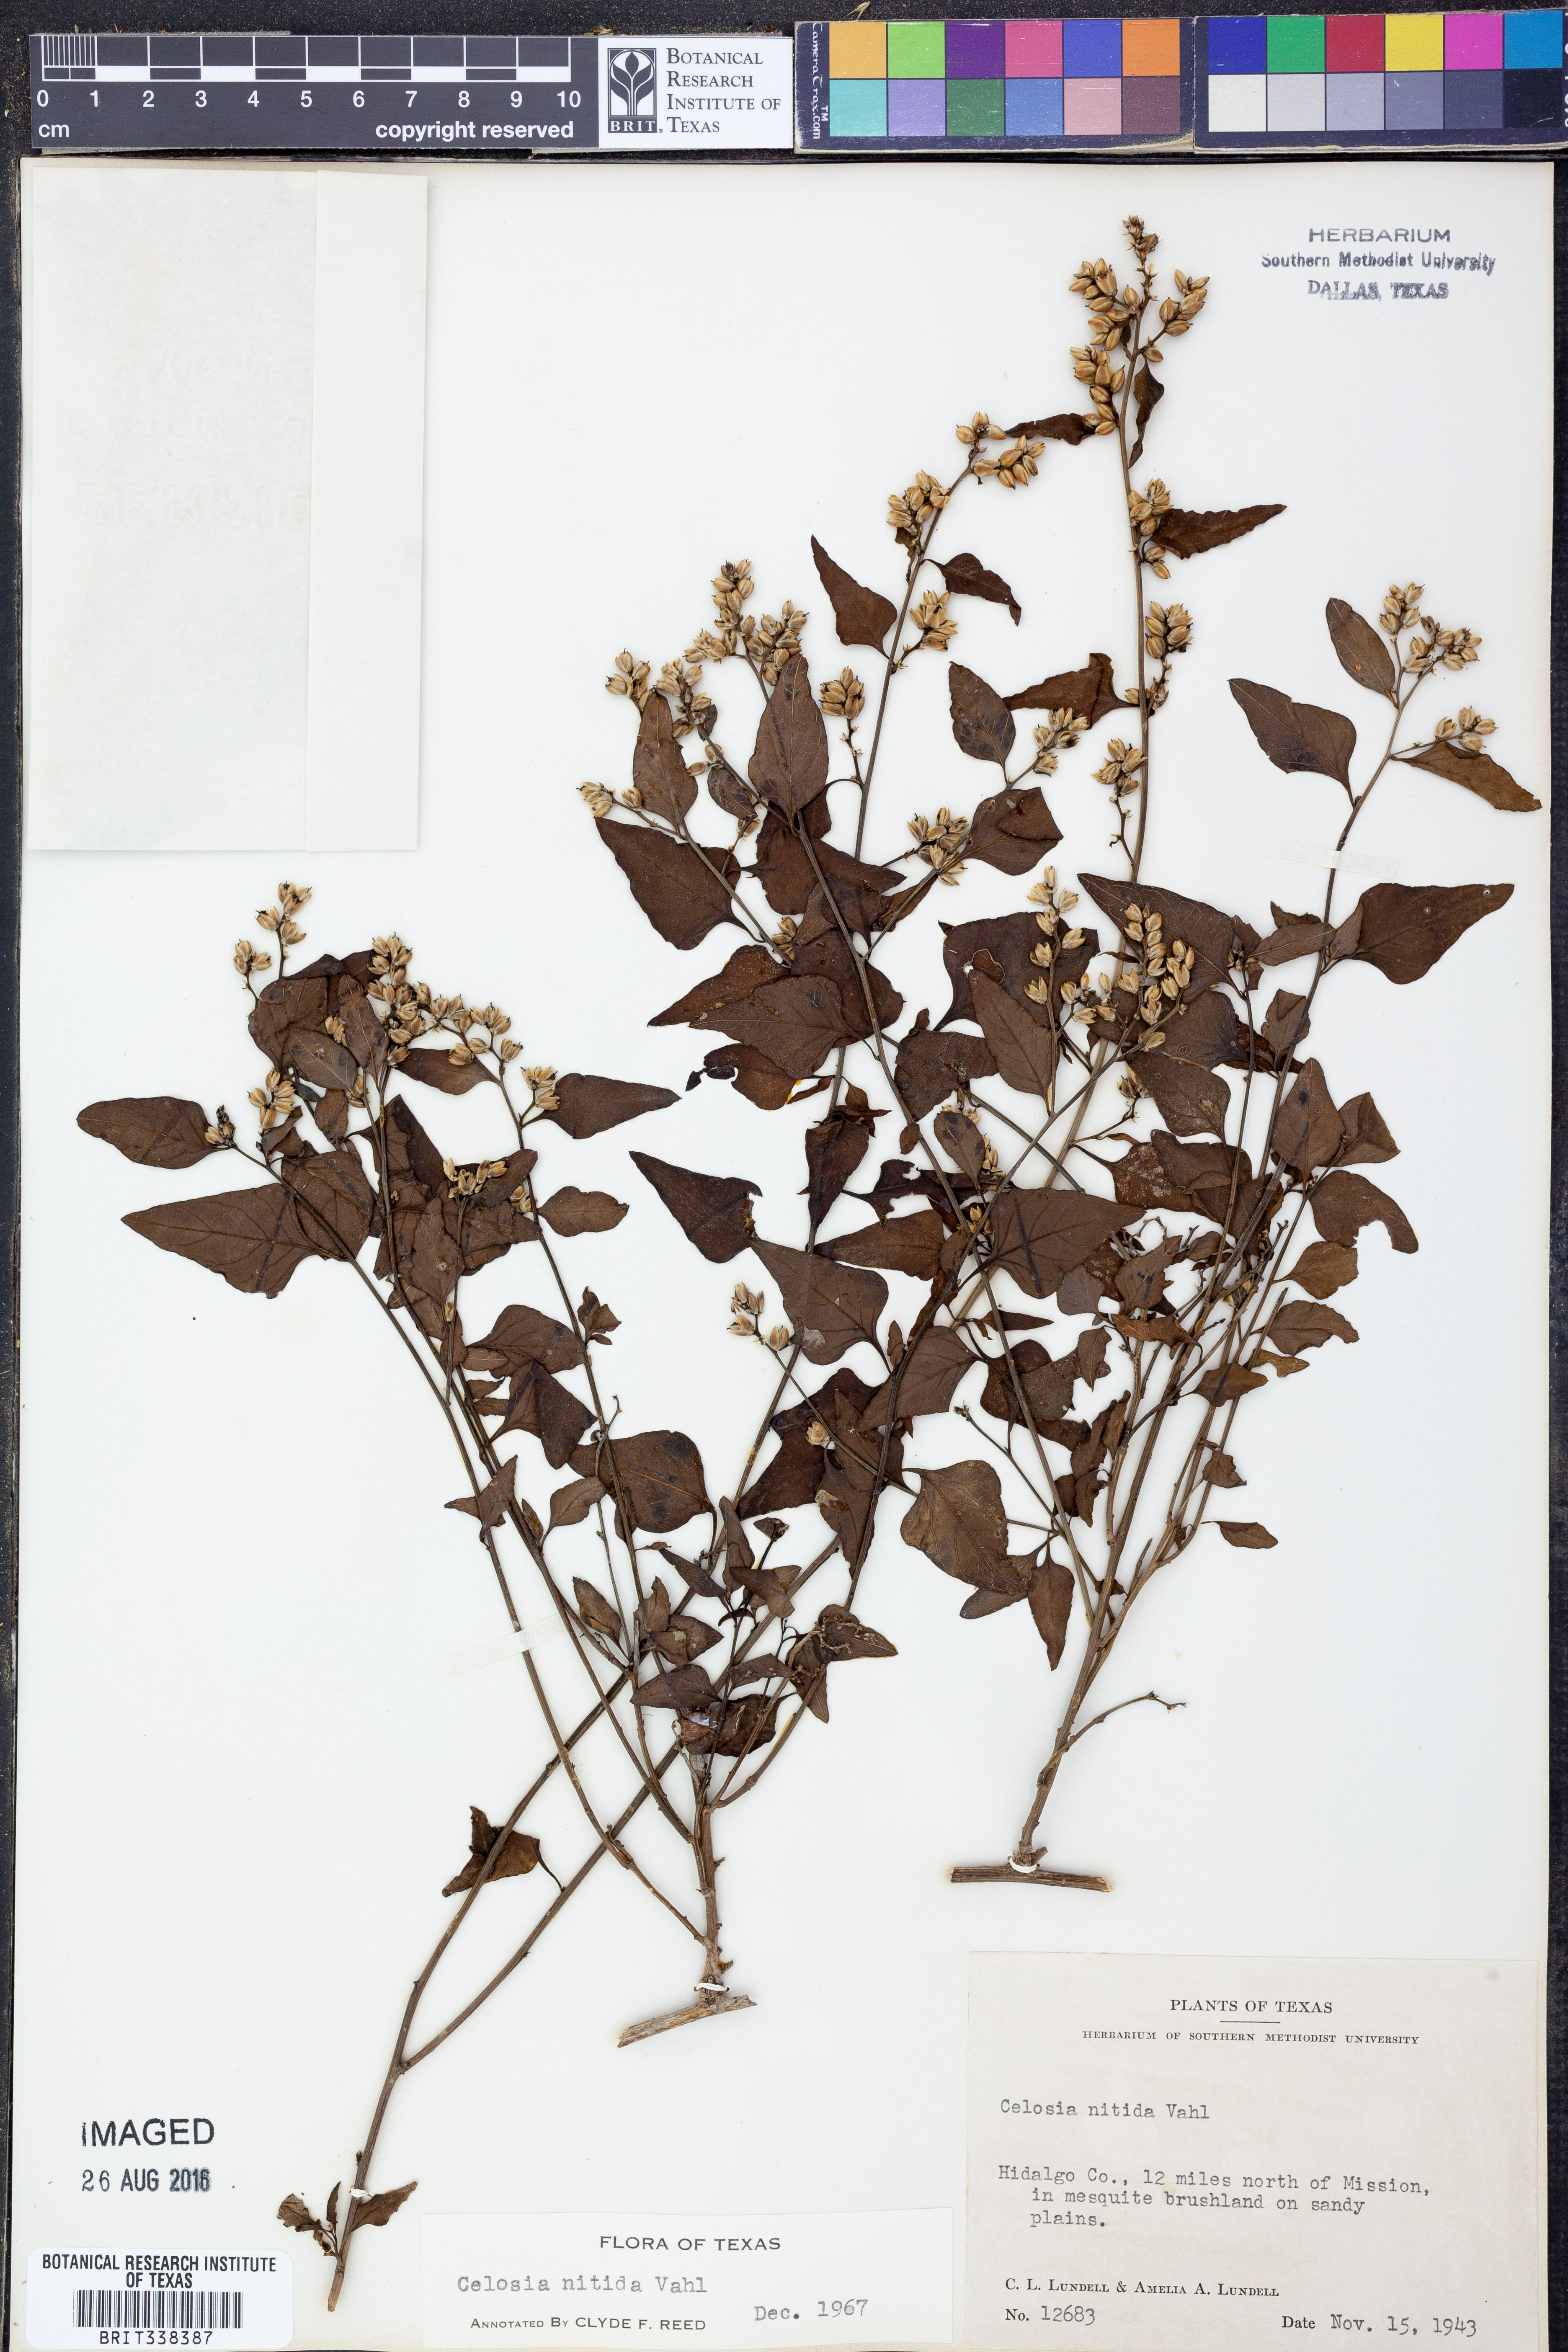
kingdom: Plantae
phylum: Tracheophyta
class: Magnoliopsida
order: Caryophyllales
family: Amaranthaceae
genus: Celosia
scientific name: Celosia nitida
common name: West indian cock's comb
